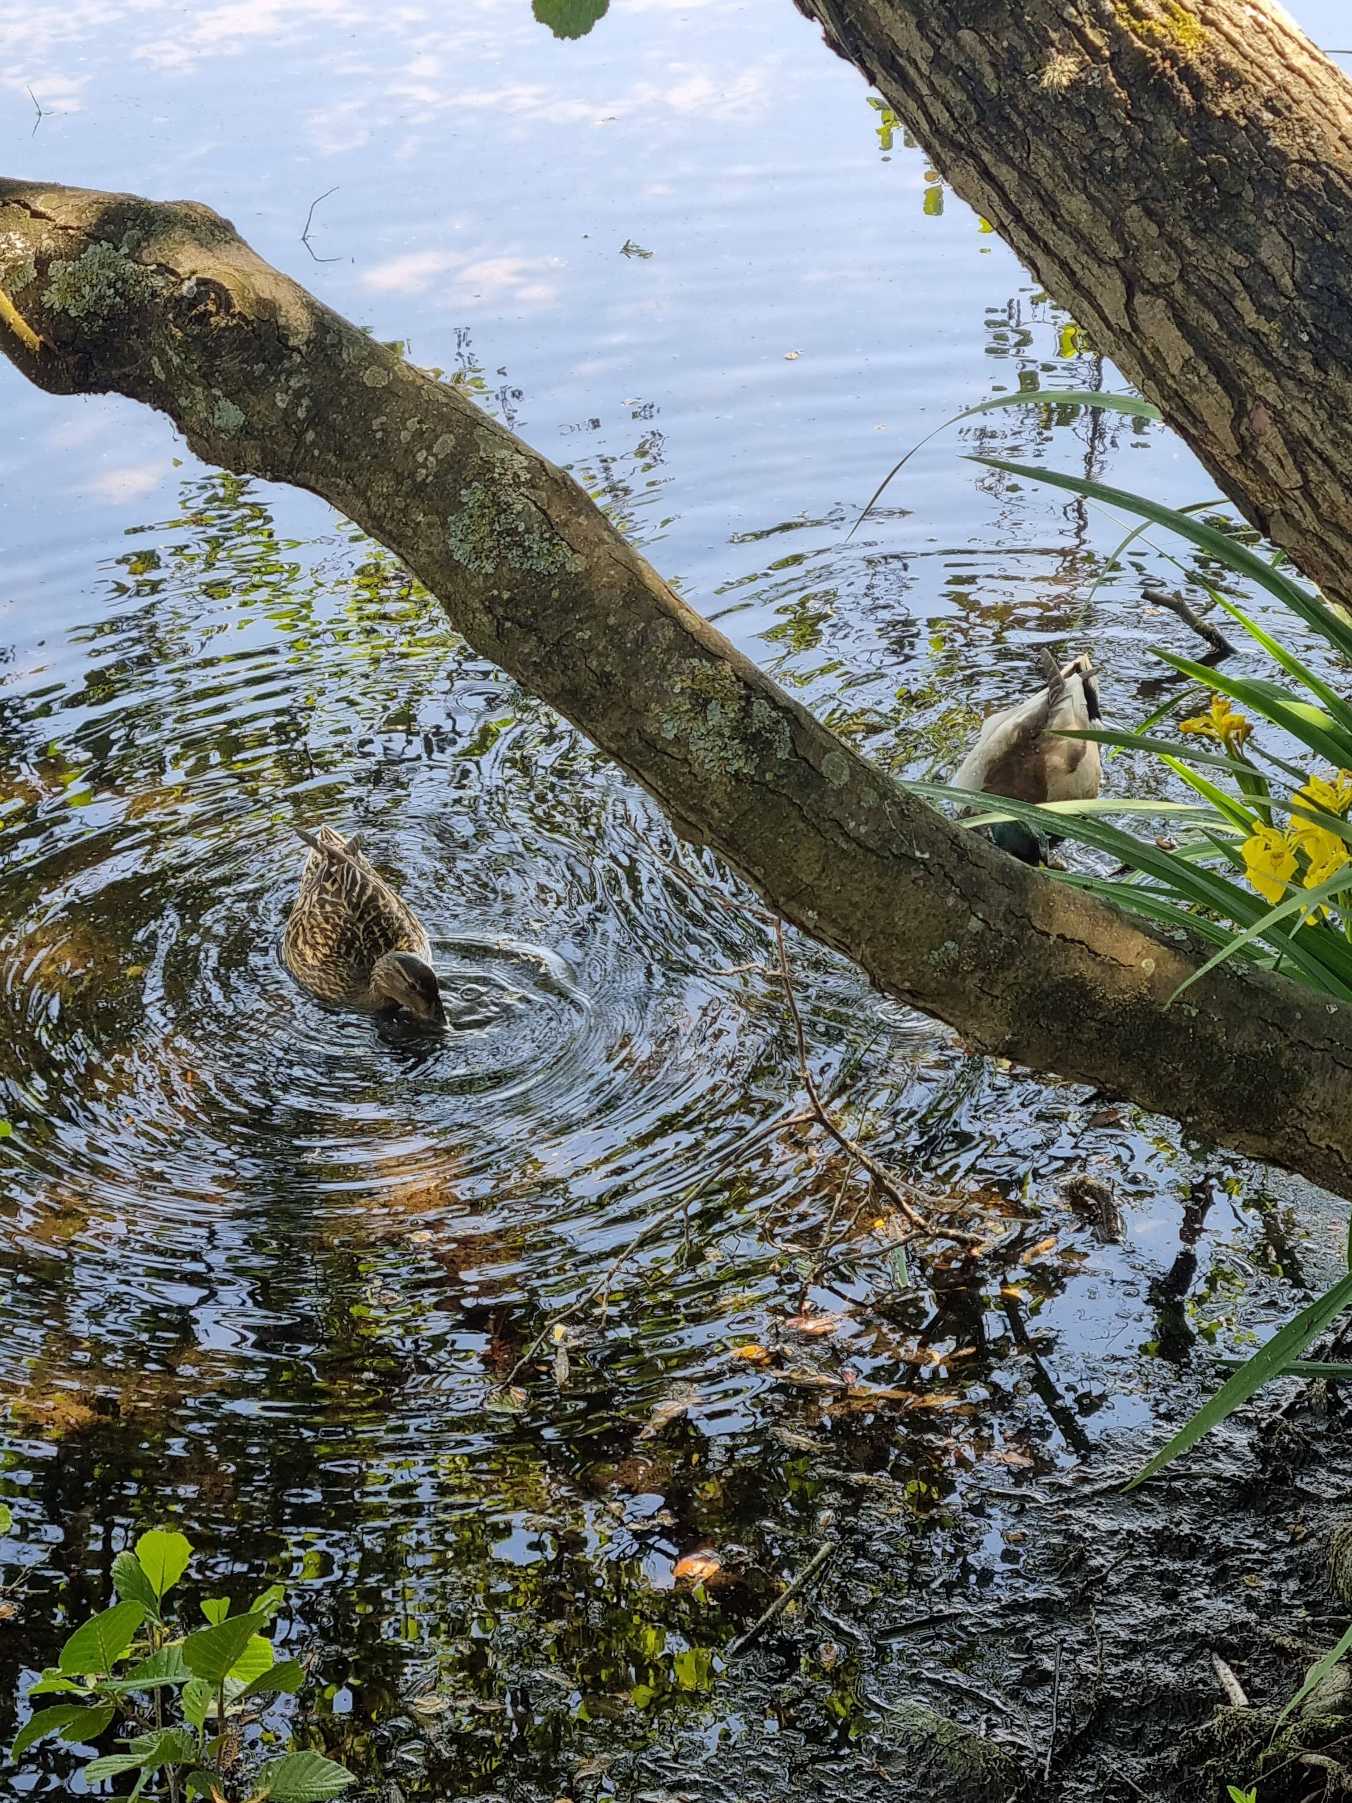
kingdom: Animalia
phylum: Chordata
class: Aves
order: Anseriformes
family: Anatidae
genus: Anas
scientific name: Anas platyrhynchos
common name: Gråand
